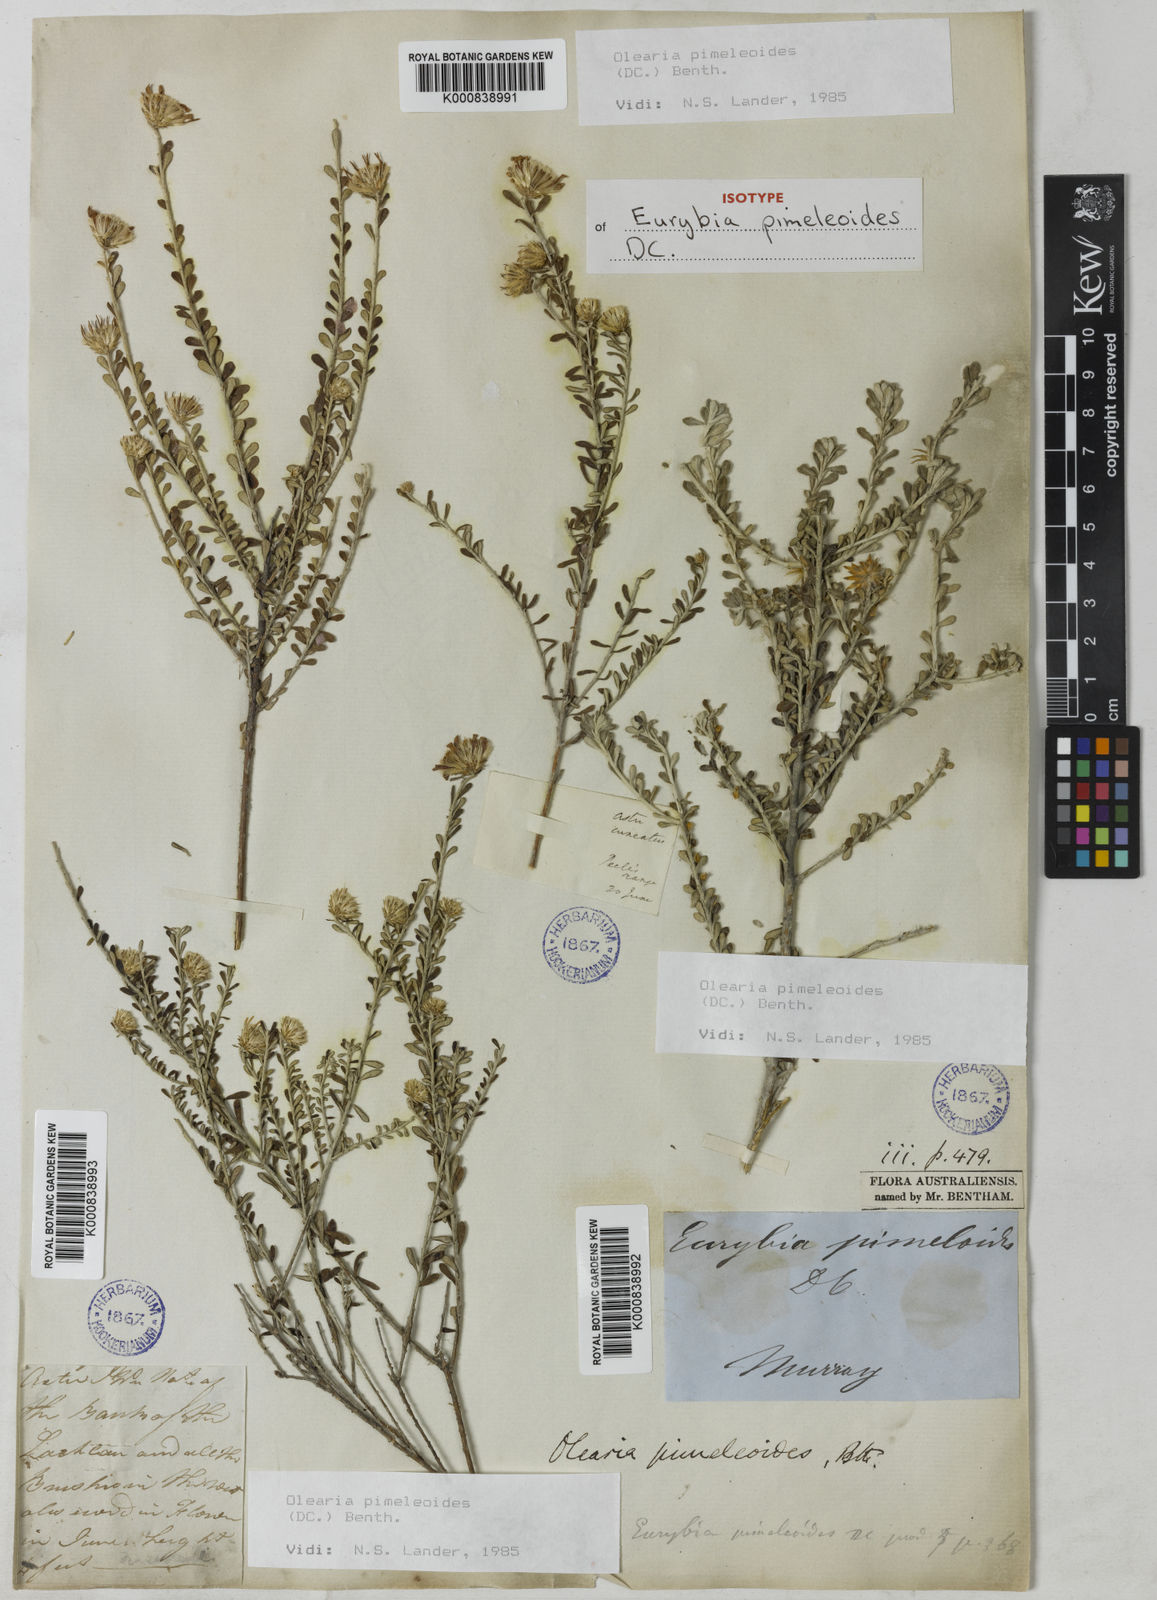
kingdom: Plantae
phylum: Tracheophyta
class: Magnoliopsida
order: Asterales
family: Asteraceae
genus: Olearia
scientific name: Olearia pimeleoides
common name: Showy daisybush
